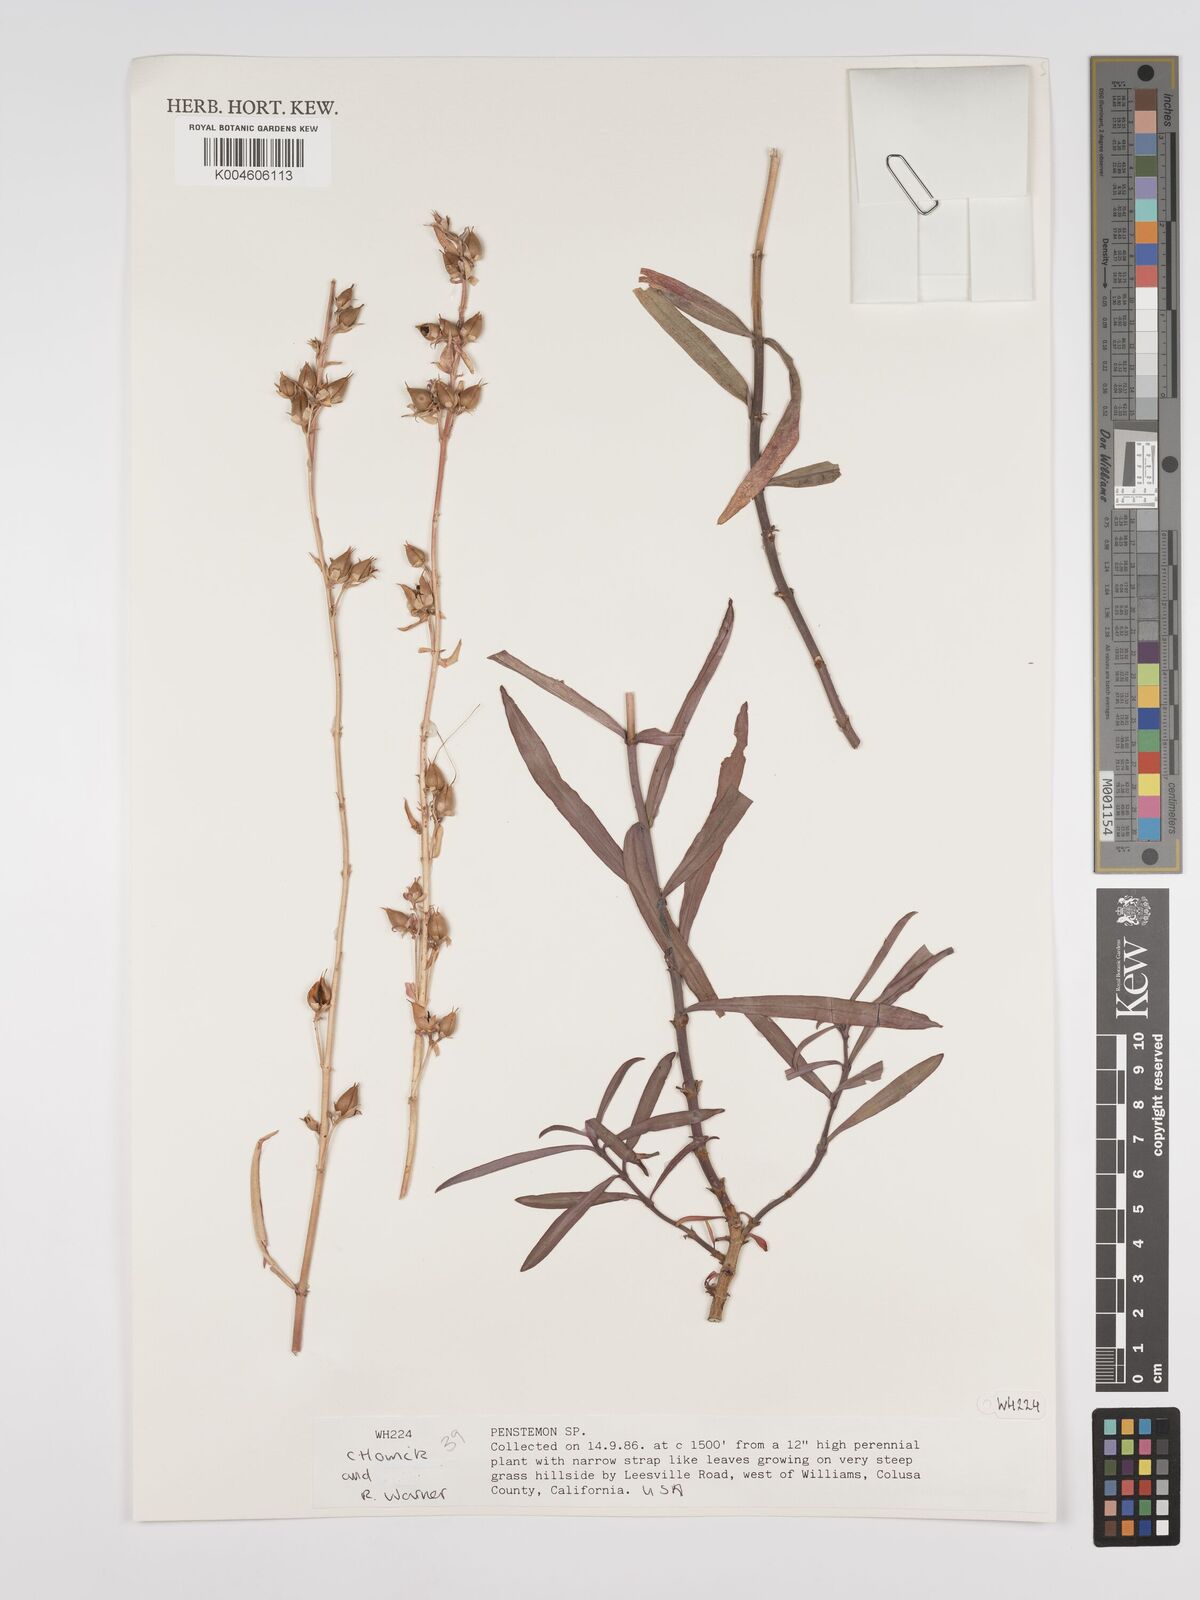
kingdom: Plantae
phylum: Tracheophyta
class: Magnoliopsida
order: Lamiales
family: Plantaginaceae
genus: Penstemon
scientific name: Penstemon
